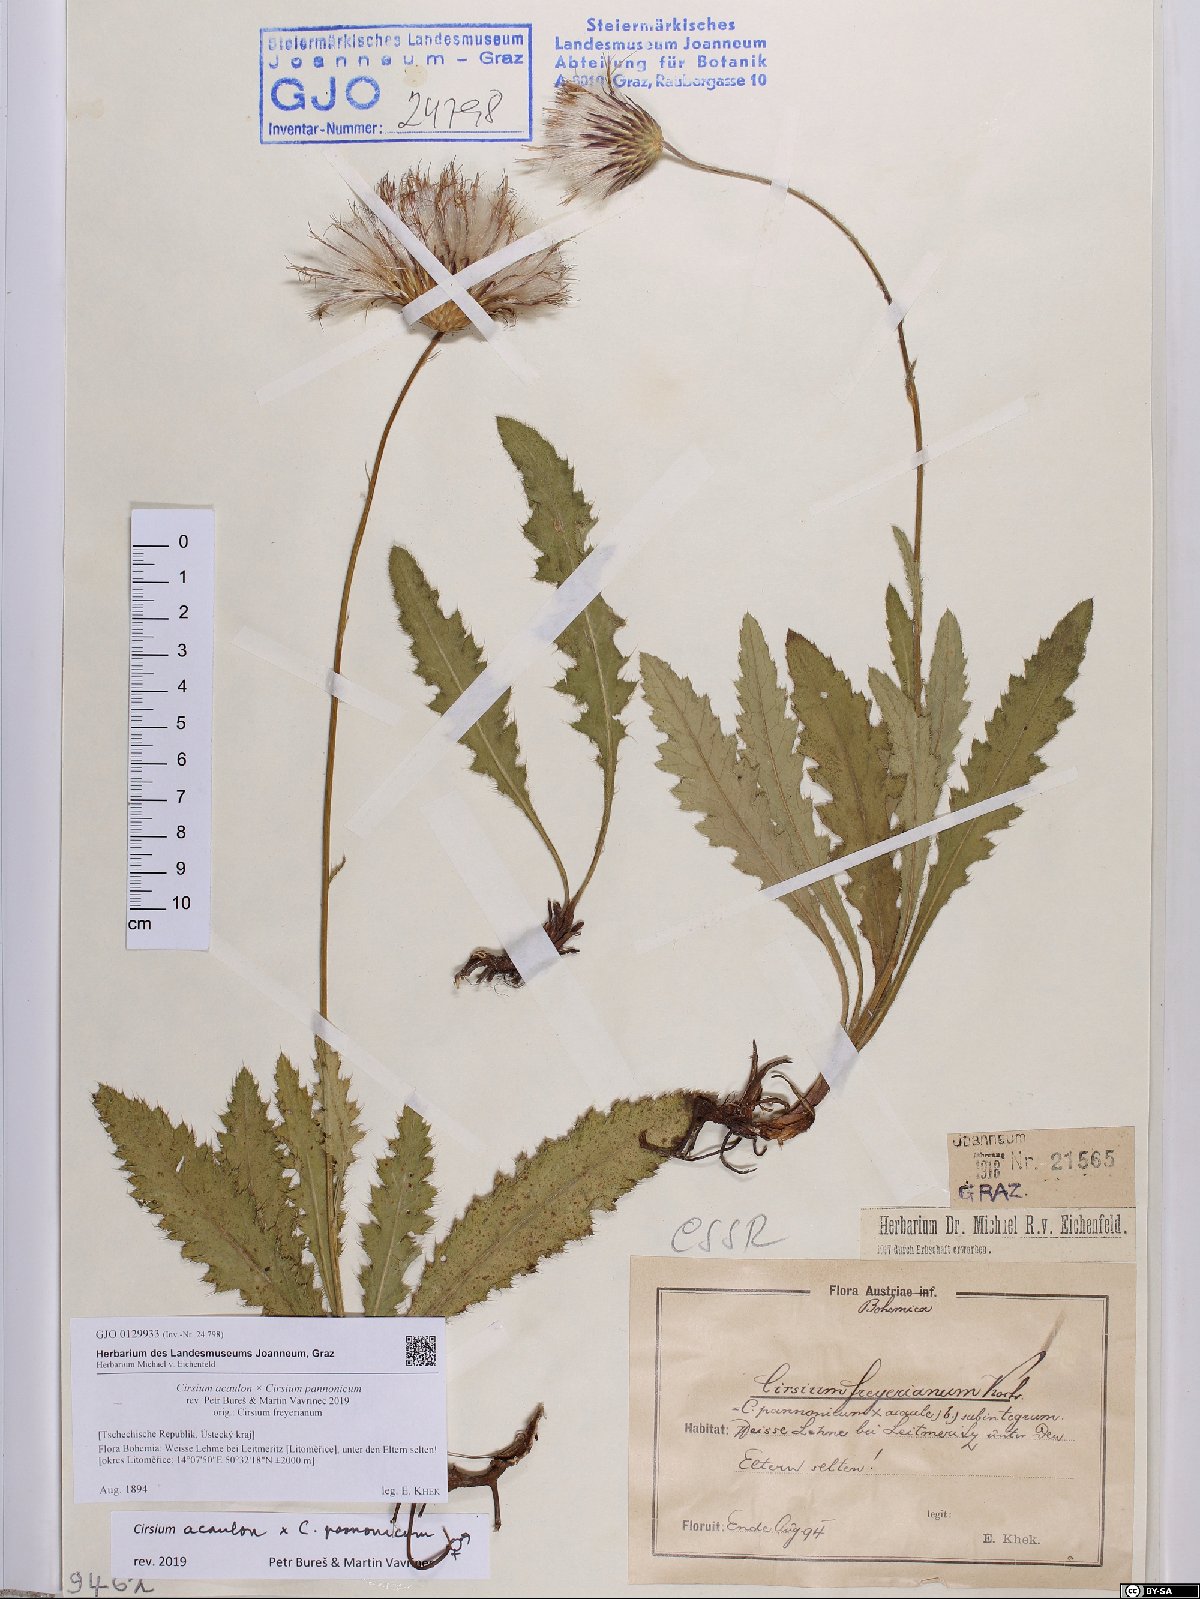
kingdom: Plantae
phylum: Tracheophyta
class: Magnoliopsida
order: Asterales
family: Asteraceae
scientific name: Asteraceae
